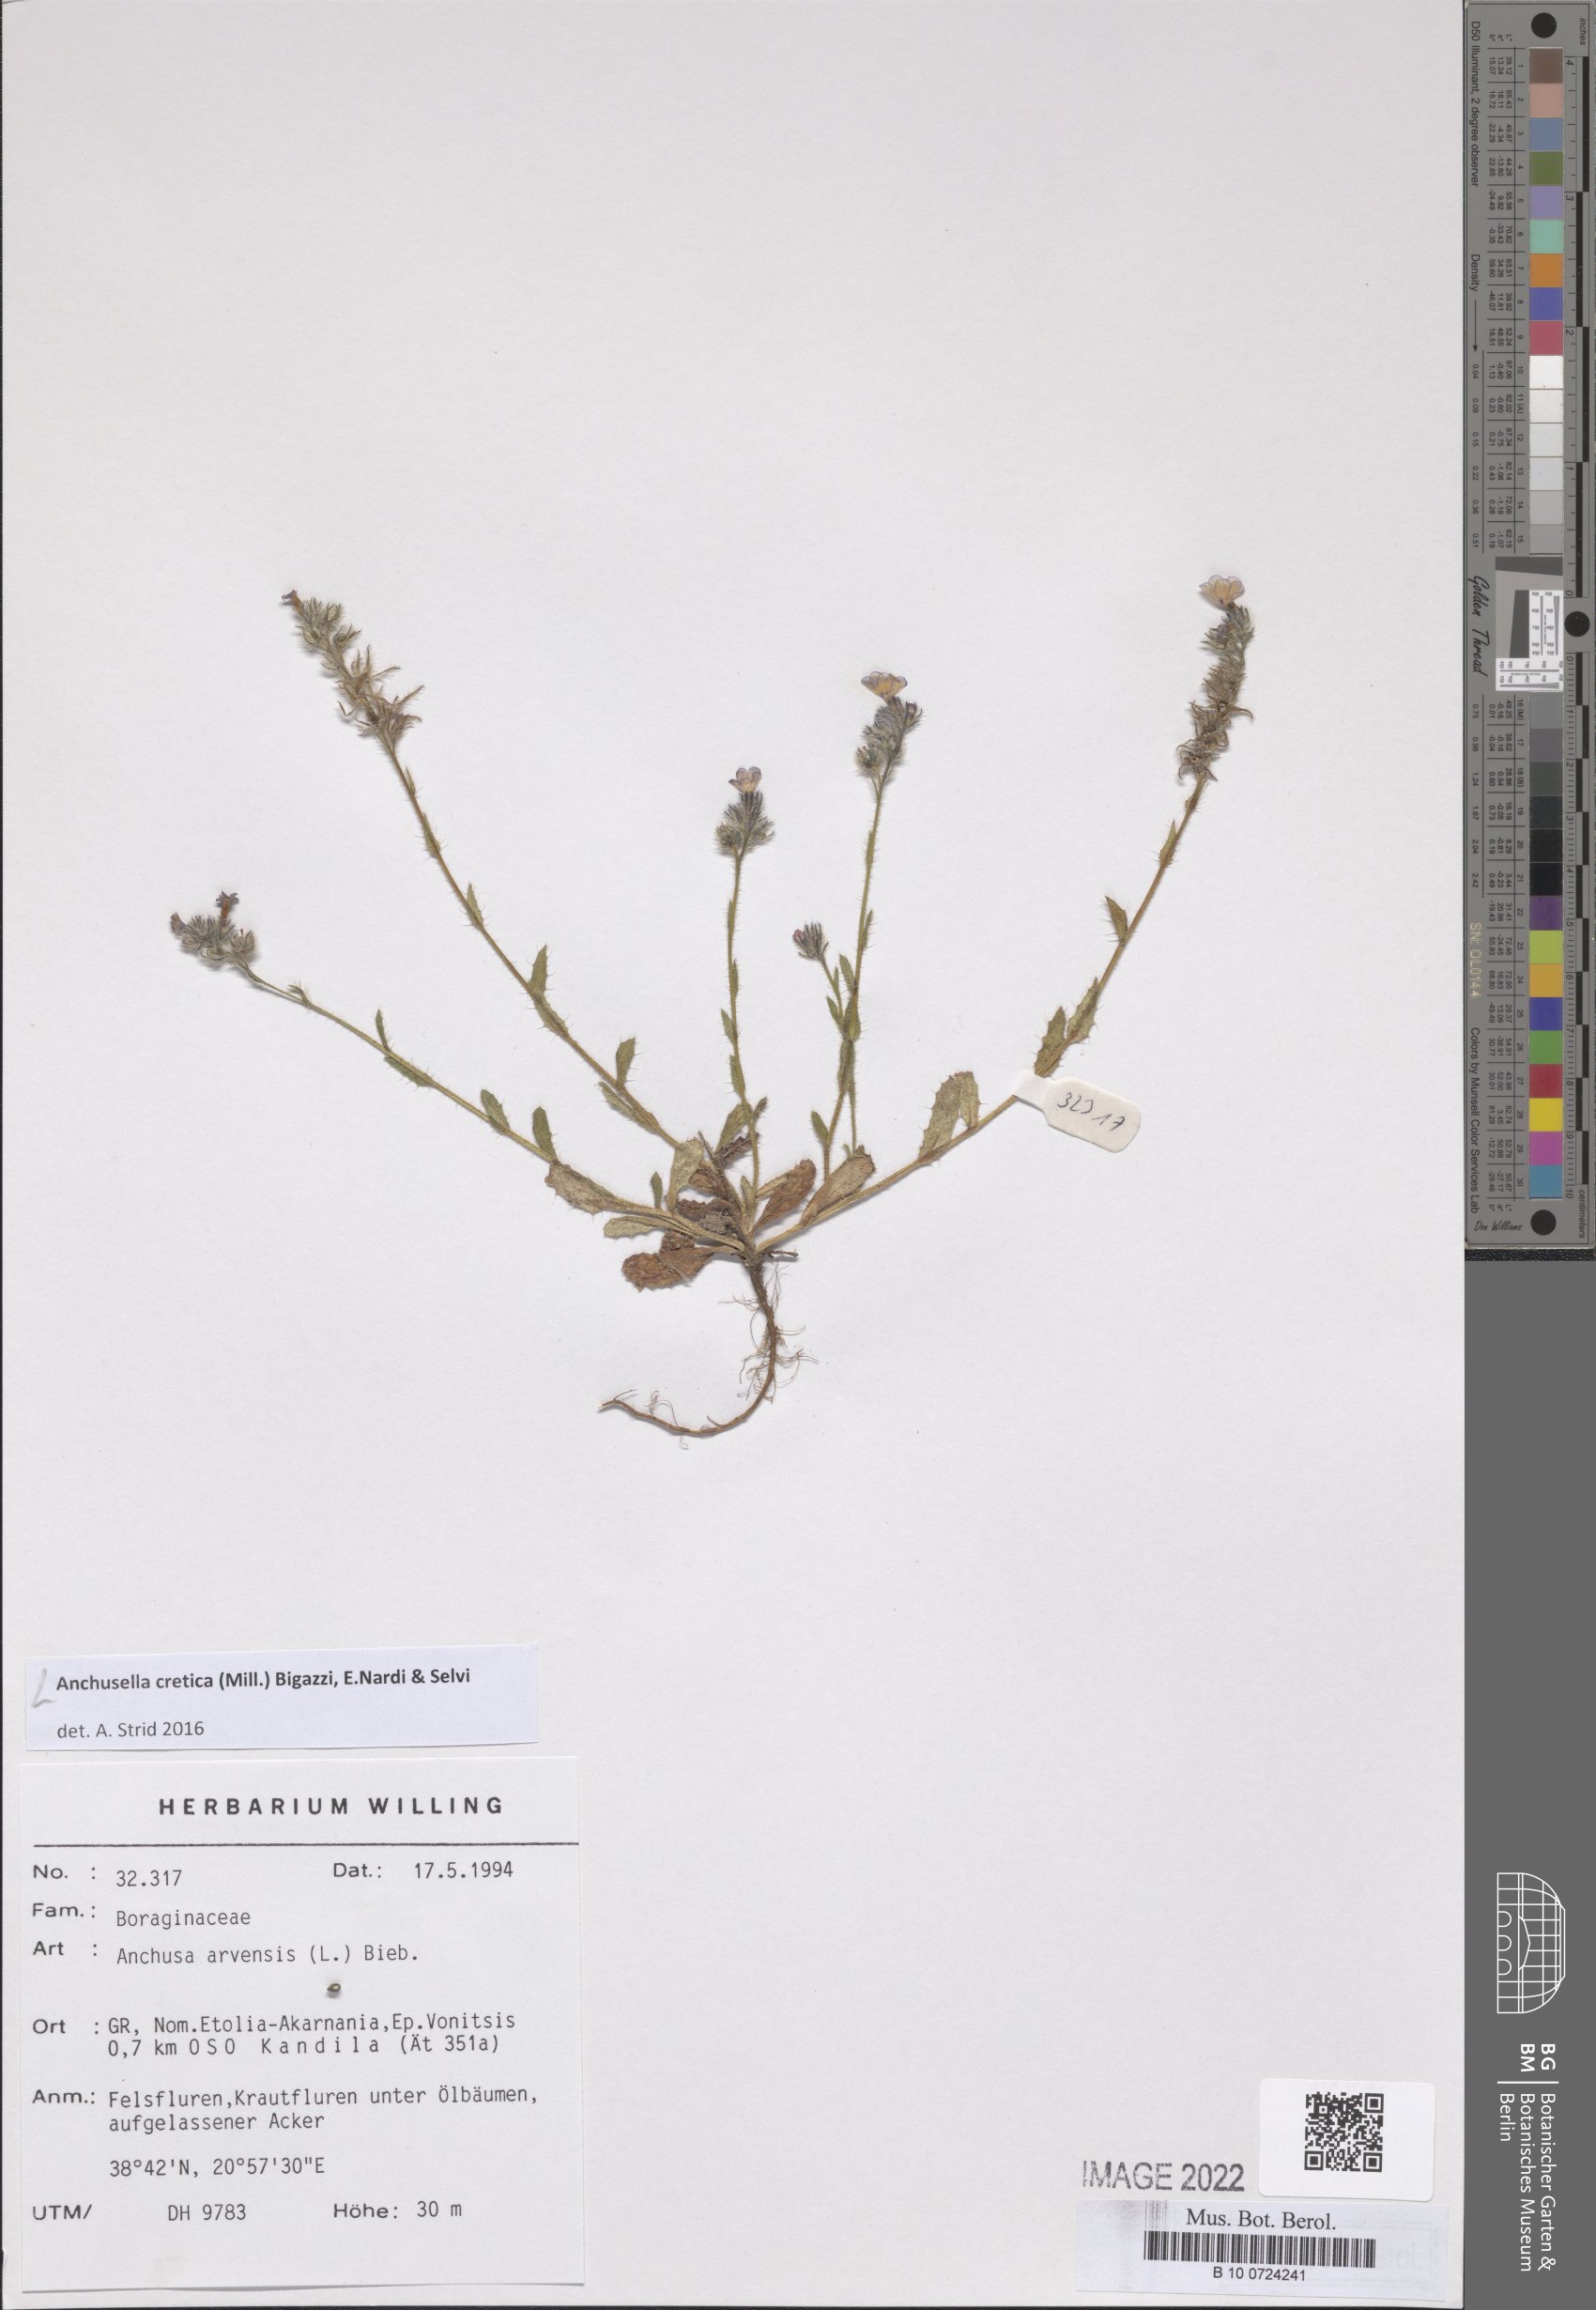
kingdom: Plantae
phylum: Tracheophyta
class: Magnoliopsida
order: Boraginales
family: Boraginaceae
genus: Anchusella
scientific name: Anchusella cretica
